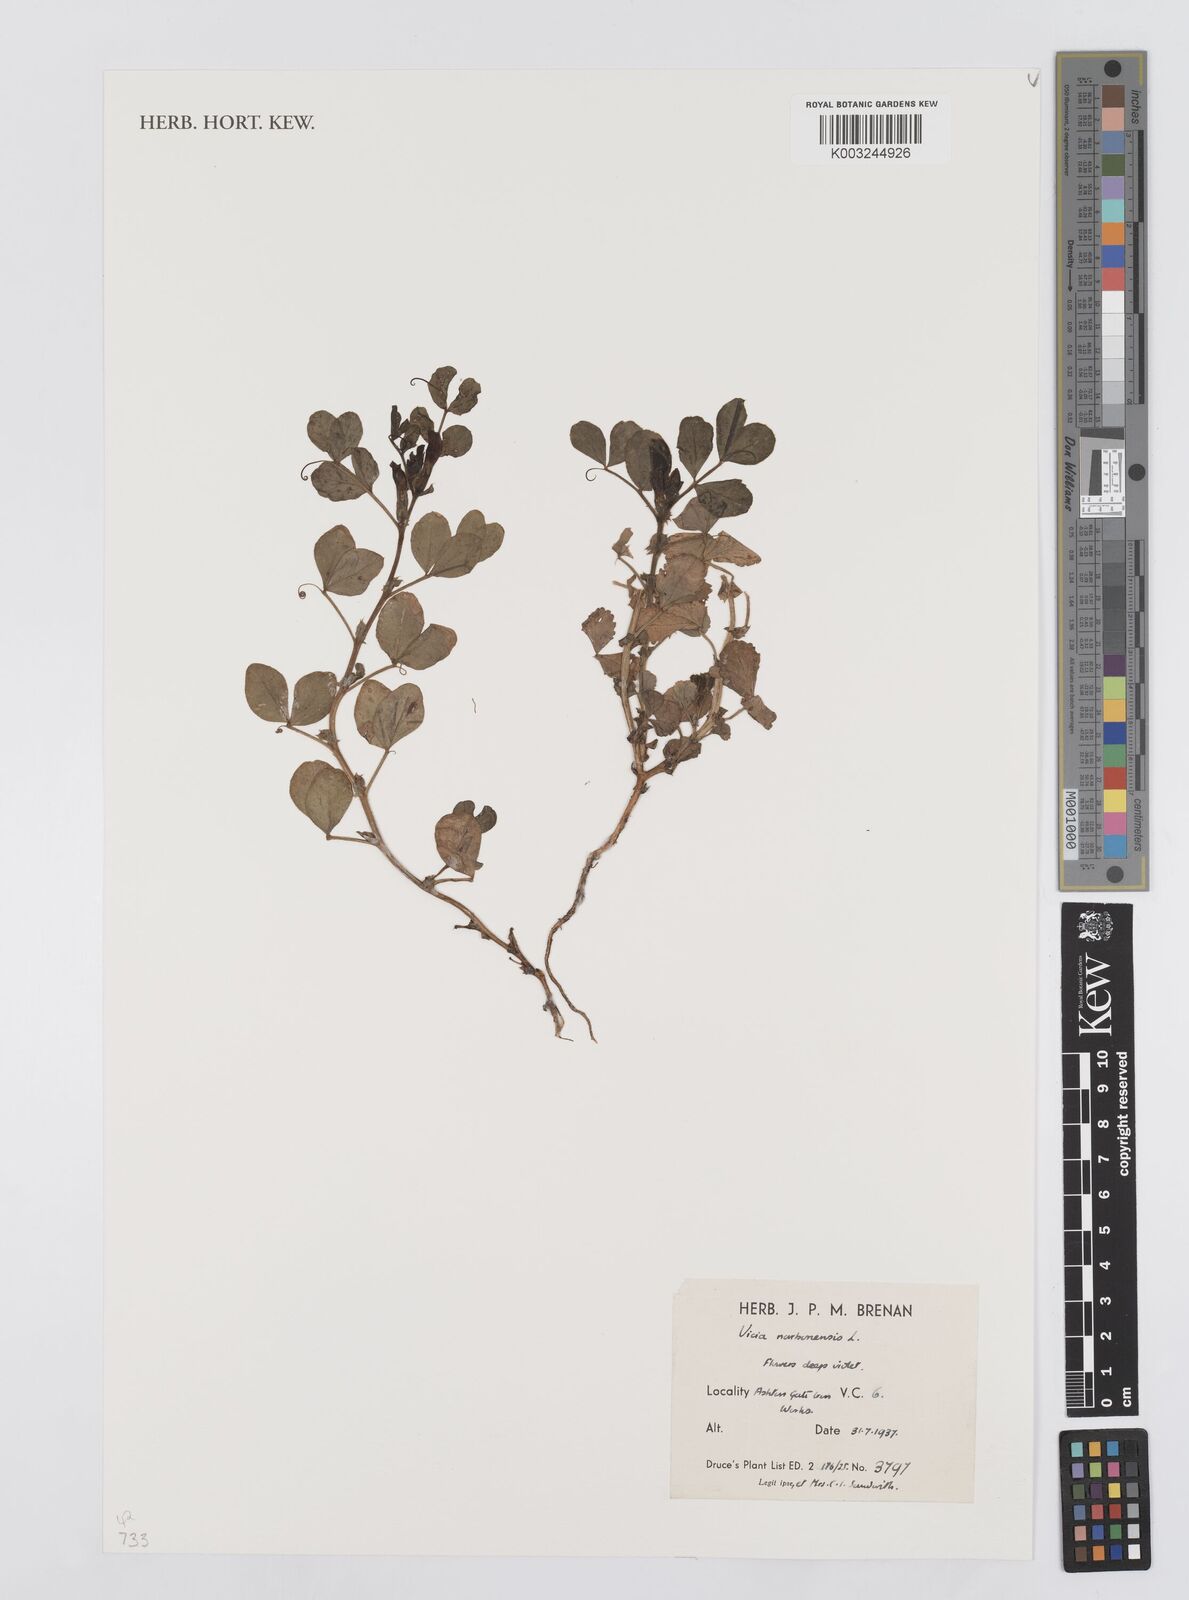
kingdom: Plantae
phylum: Tracheophyta
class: Magnoliopsida
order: Fabales
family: Fabaceae
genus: Vicia
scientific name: Vicia narbonensis
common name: Narbonne vetch
